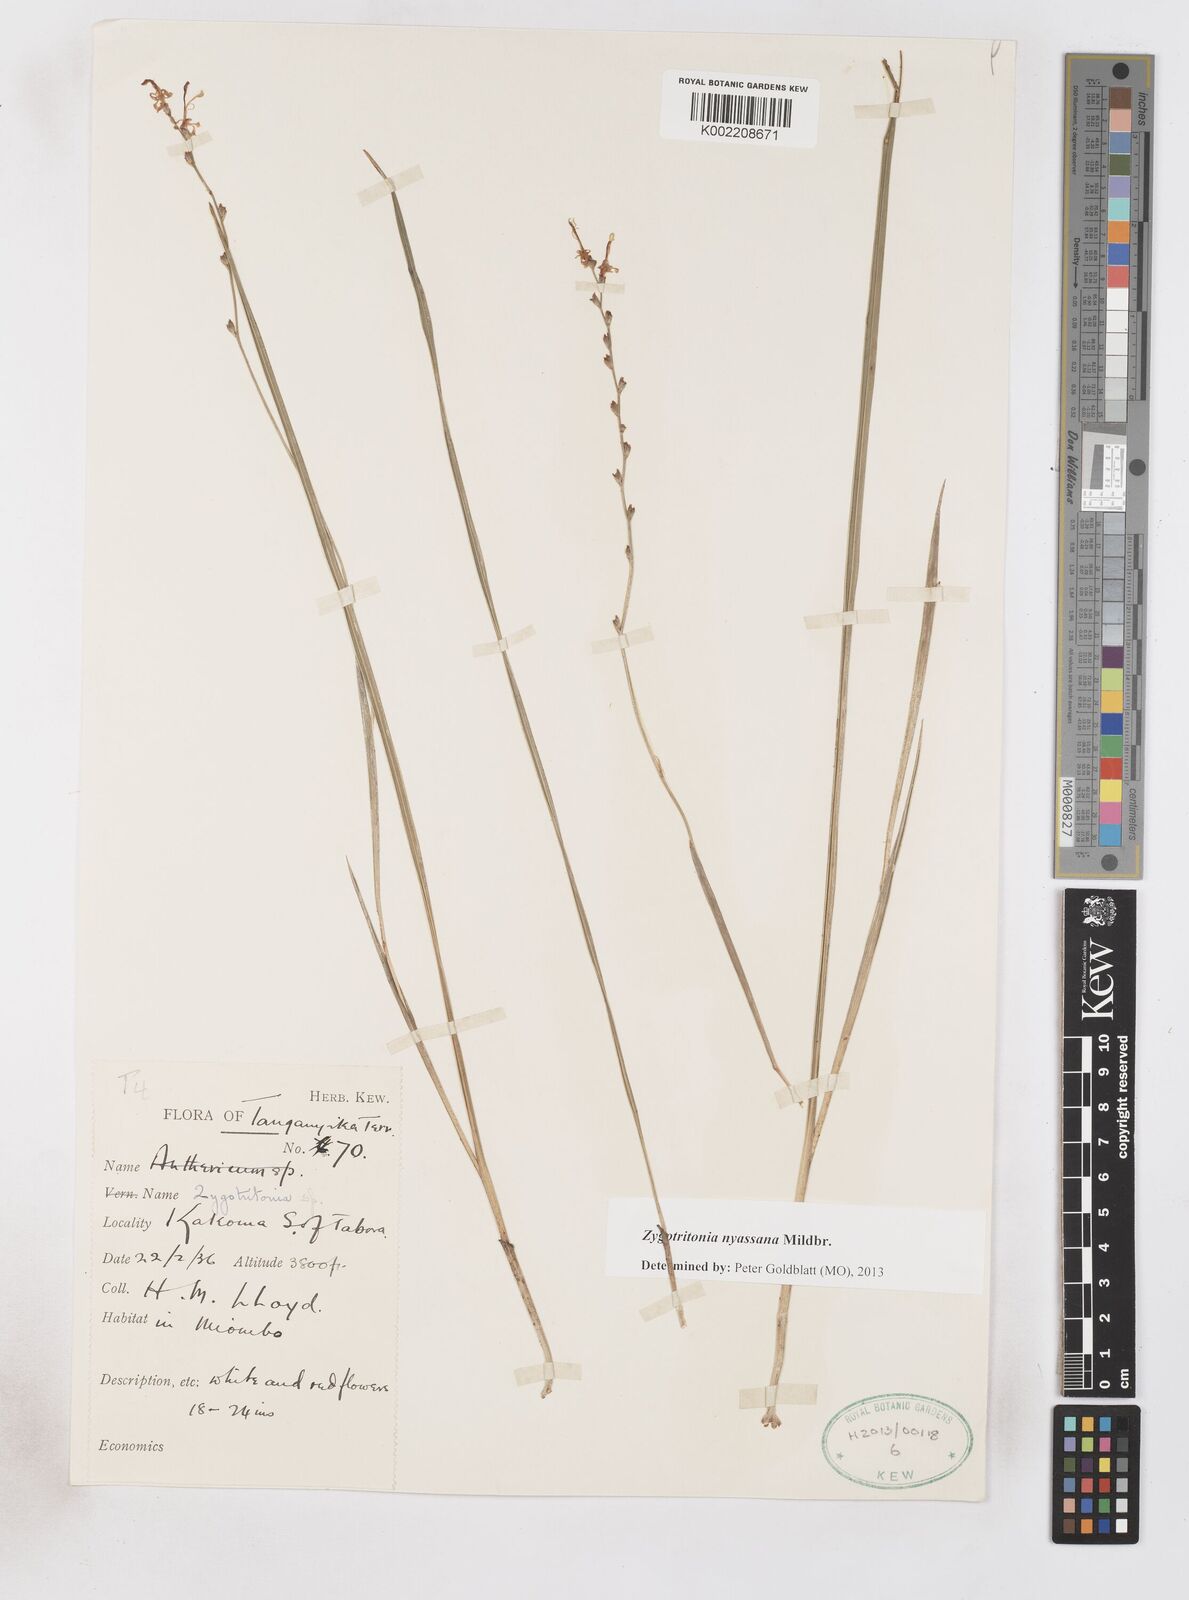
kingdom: Plantae
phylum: Tracheophyta
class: Liliopsida
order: Asparagales
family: Iridaceae
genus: Zygotritonia
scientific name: Zygotritonia nyassana
